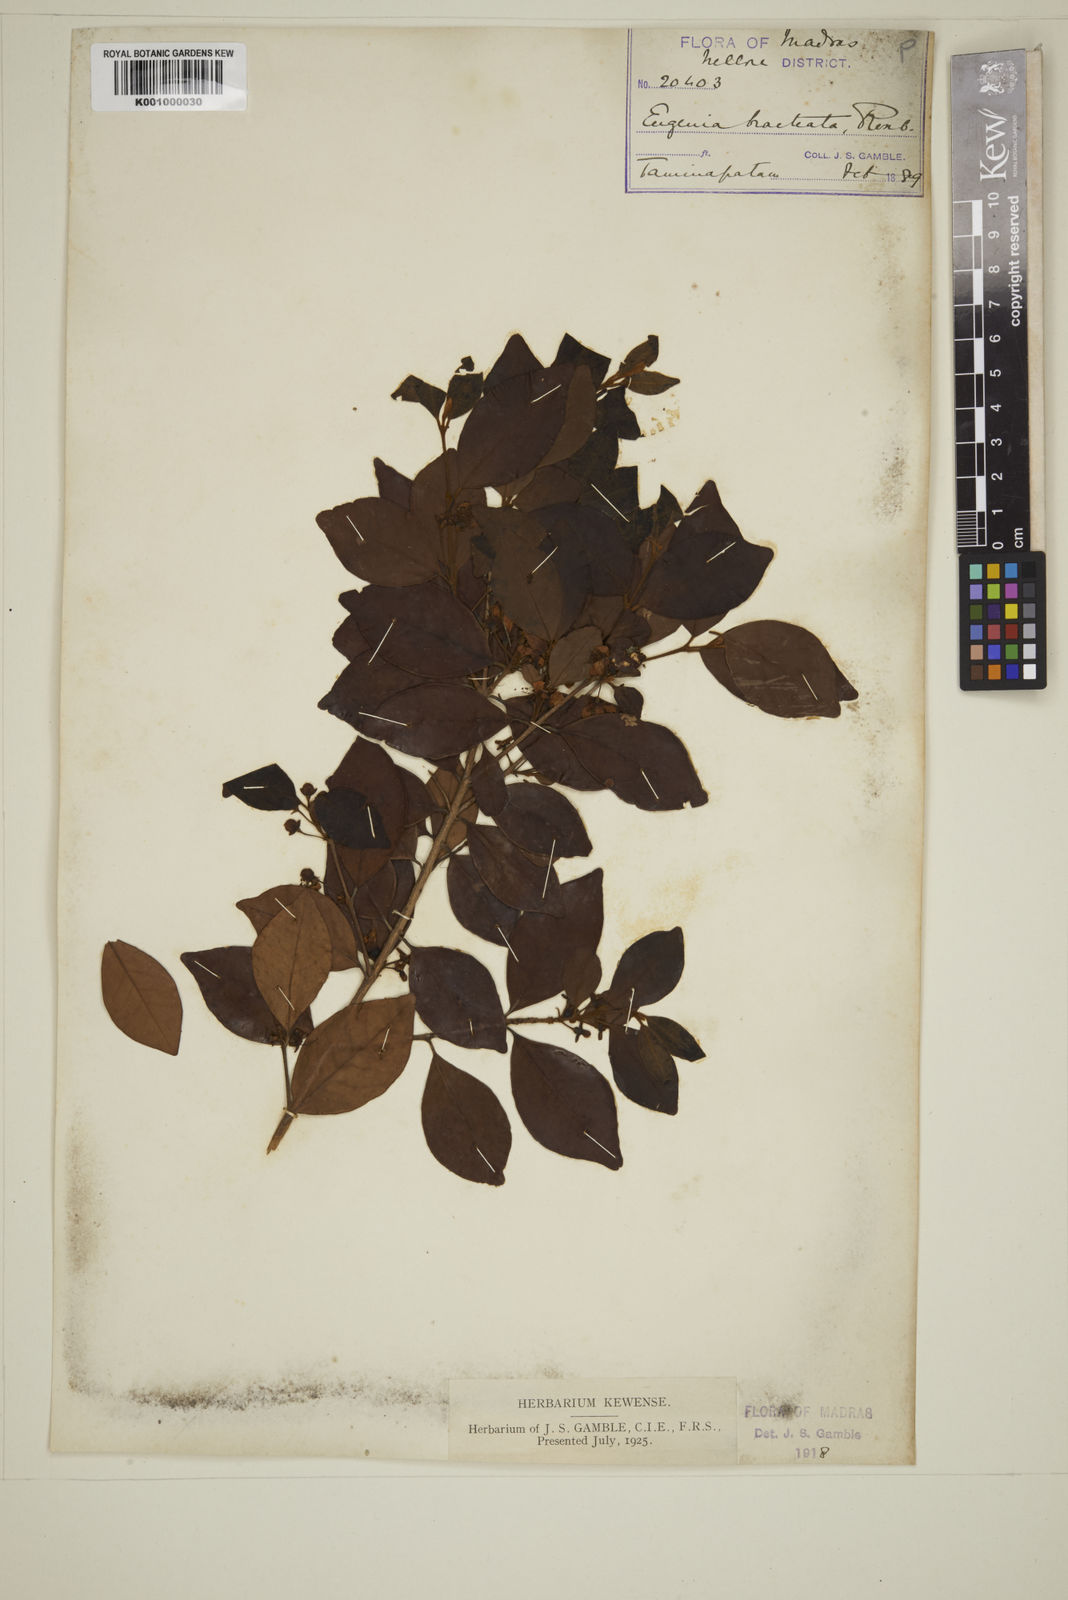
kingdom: Plantae
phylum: Tracheophyta
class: Magnoliopsida
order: Myrtales
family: Myrtaceae
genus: Myrcia
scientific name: Myrcia bracteata
